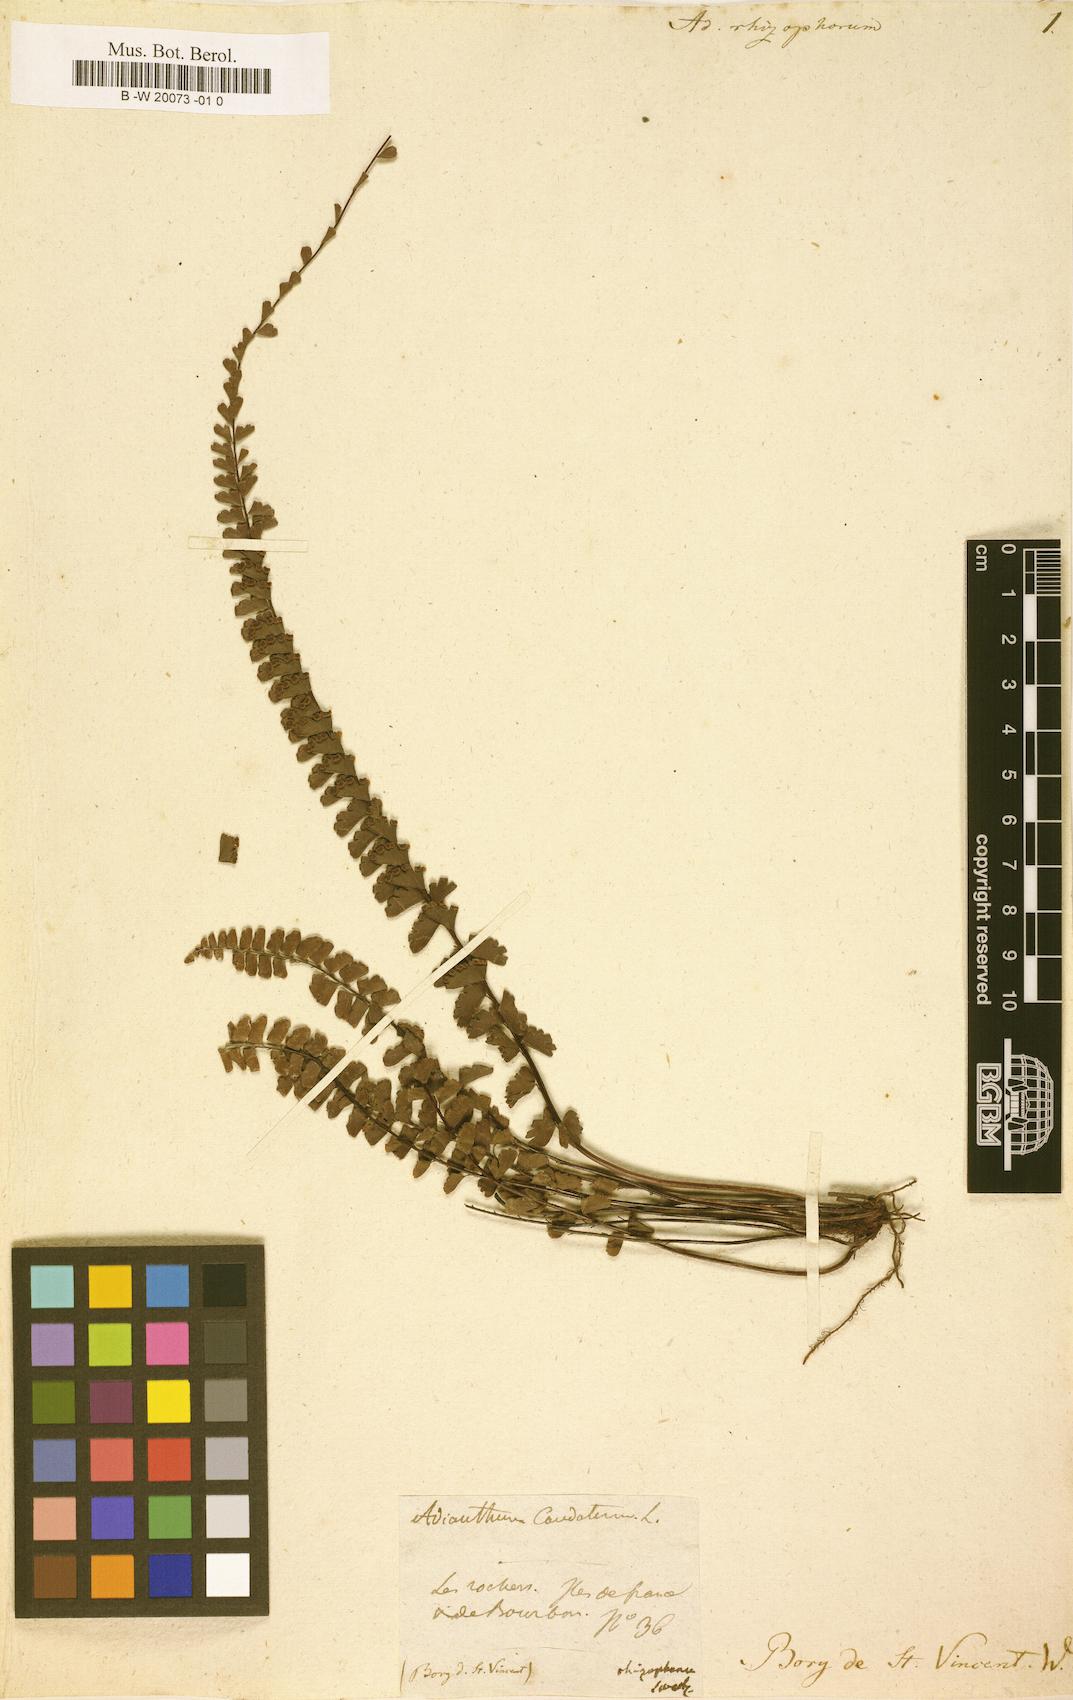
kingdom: Plantae
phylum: Tracheophyta
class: Polypodiopsida
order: Polypodiales
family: Pteridaceae
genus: Adiantum
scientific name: Adiantum rhizophytum
